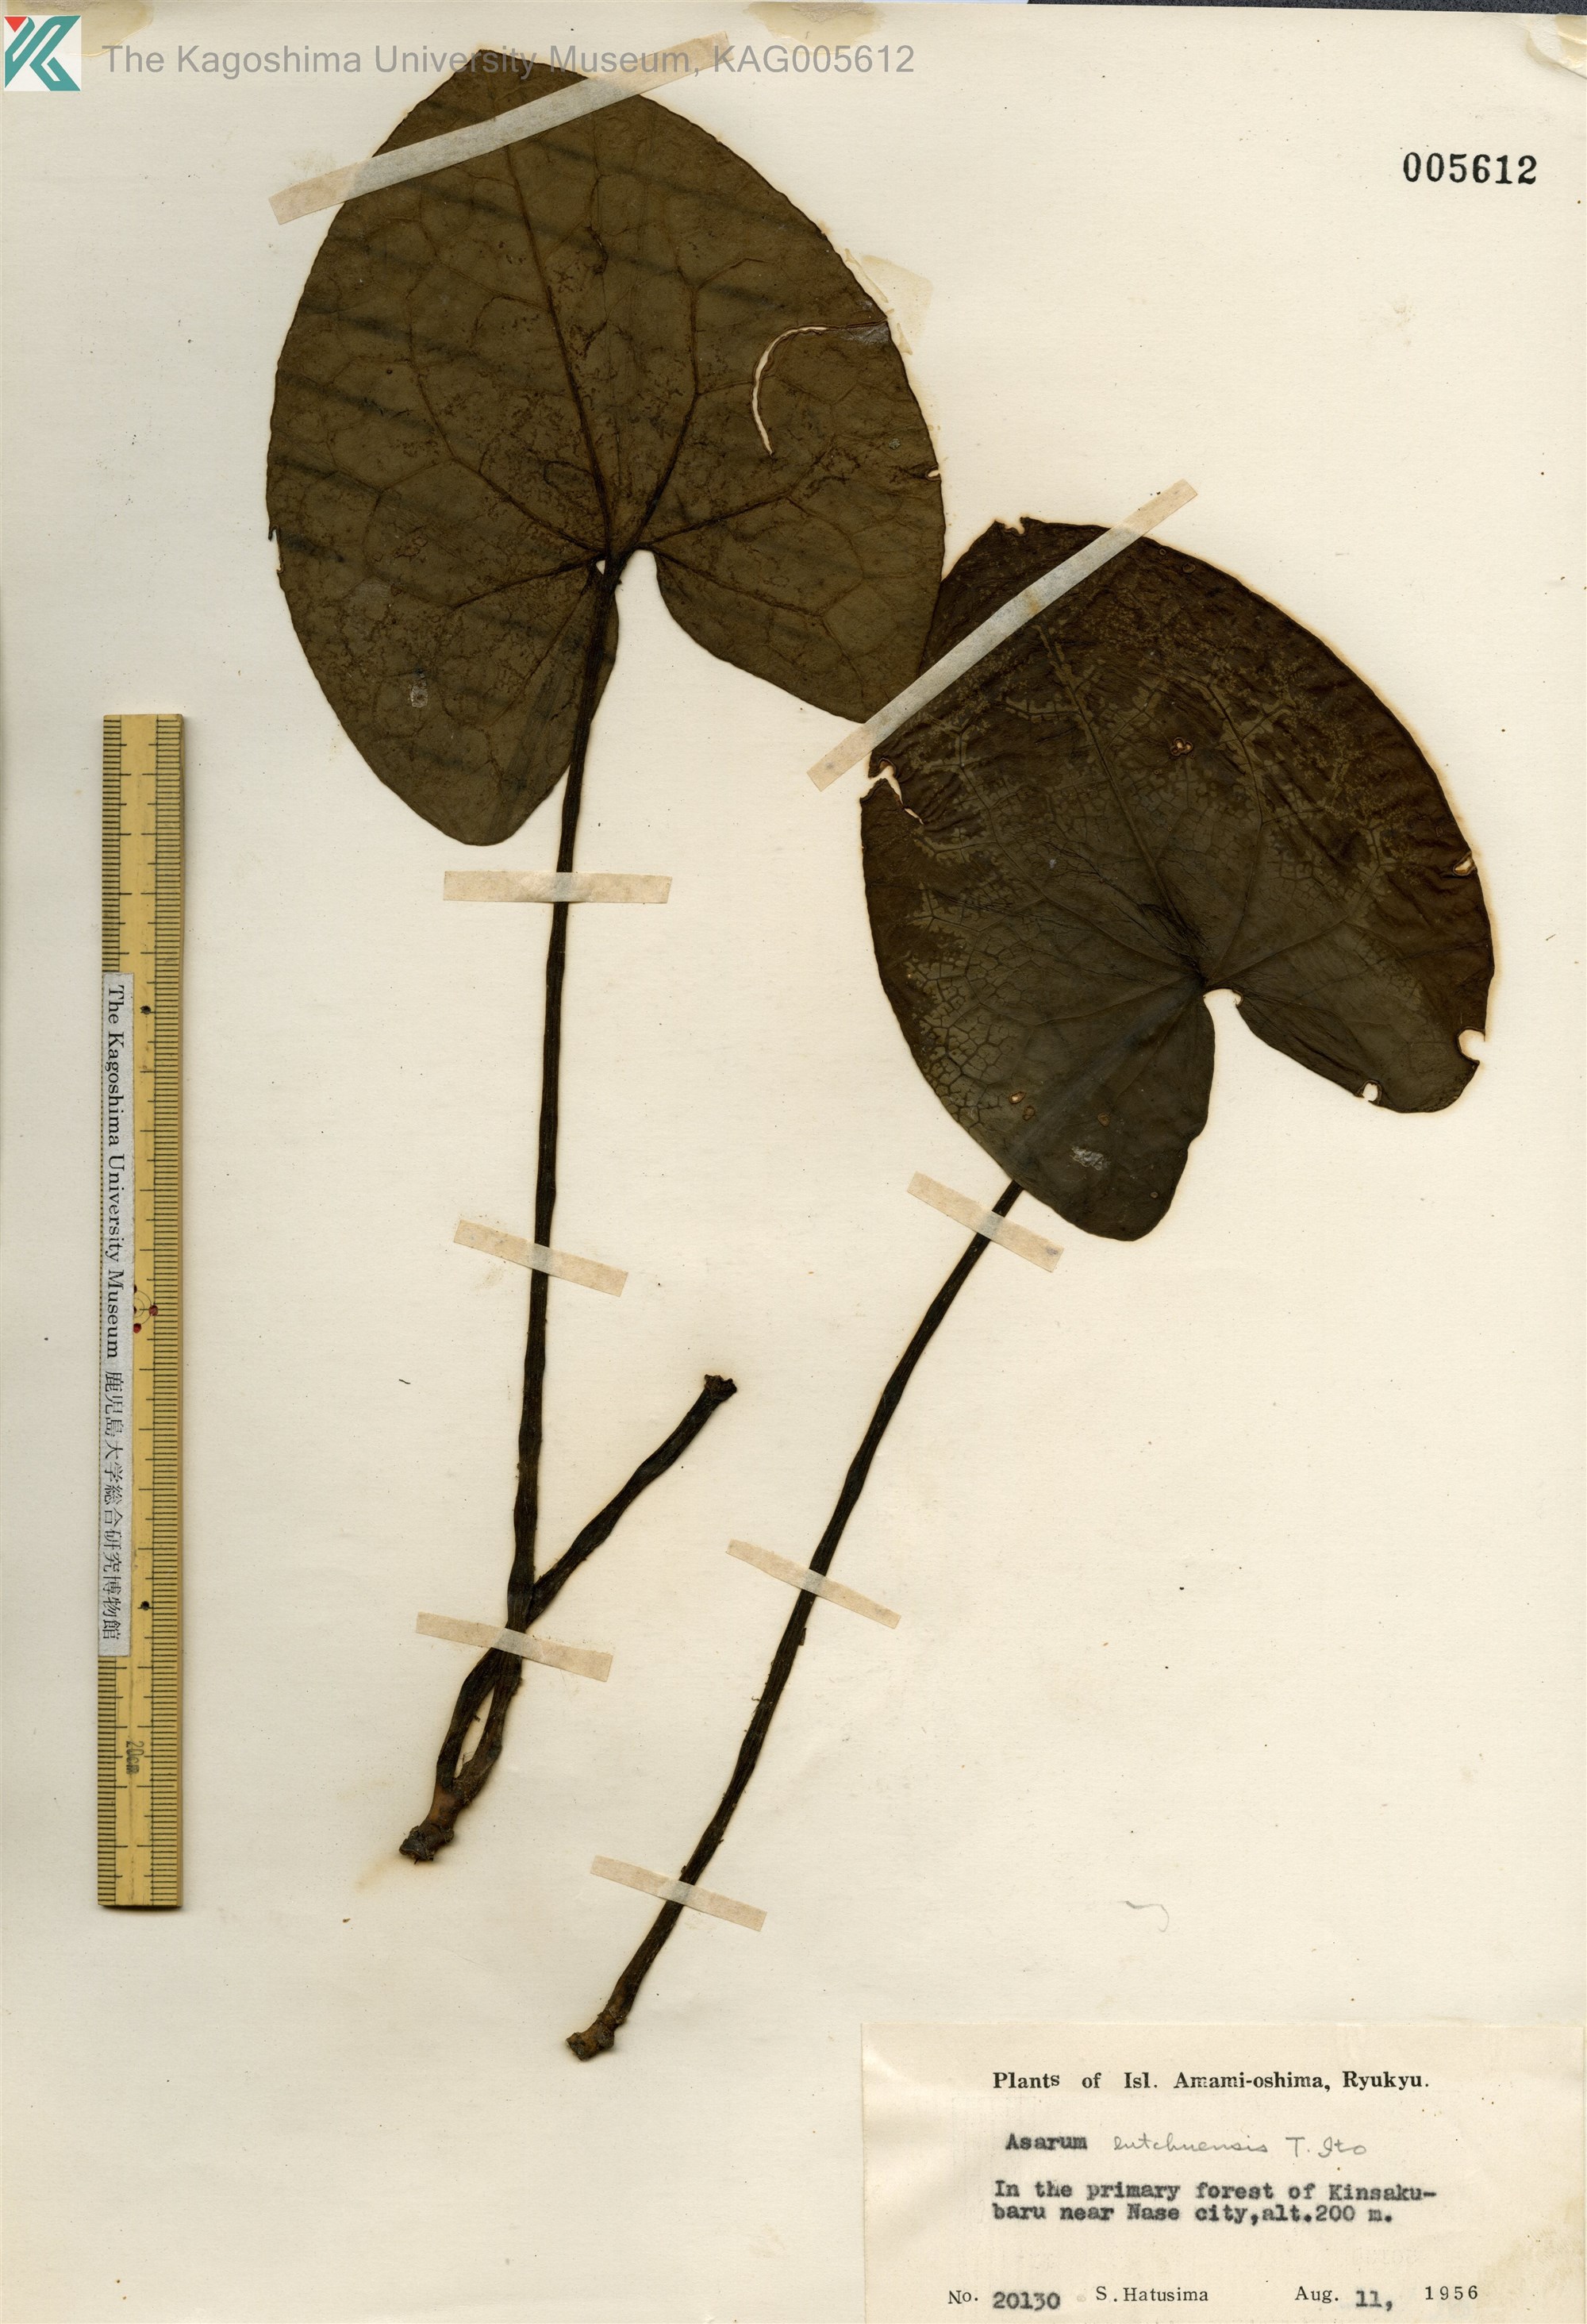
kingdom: Plantae
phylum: Tracheophyta
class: Magnoliopsida
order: Piperales
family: Aristolochiaceae
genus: Asarum
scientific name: Asarum lutchuense
